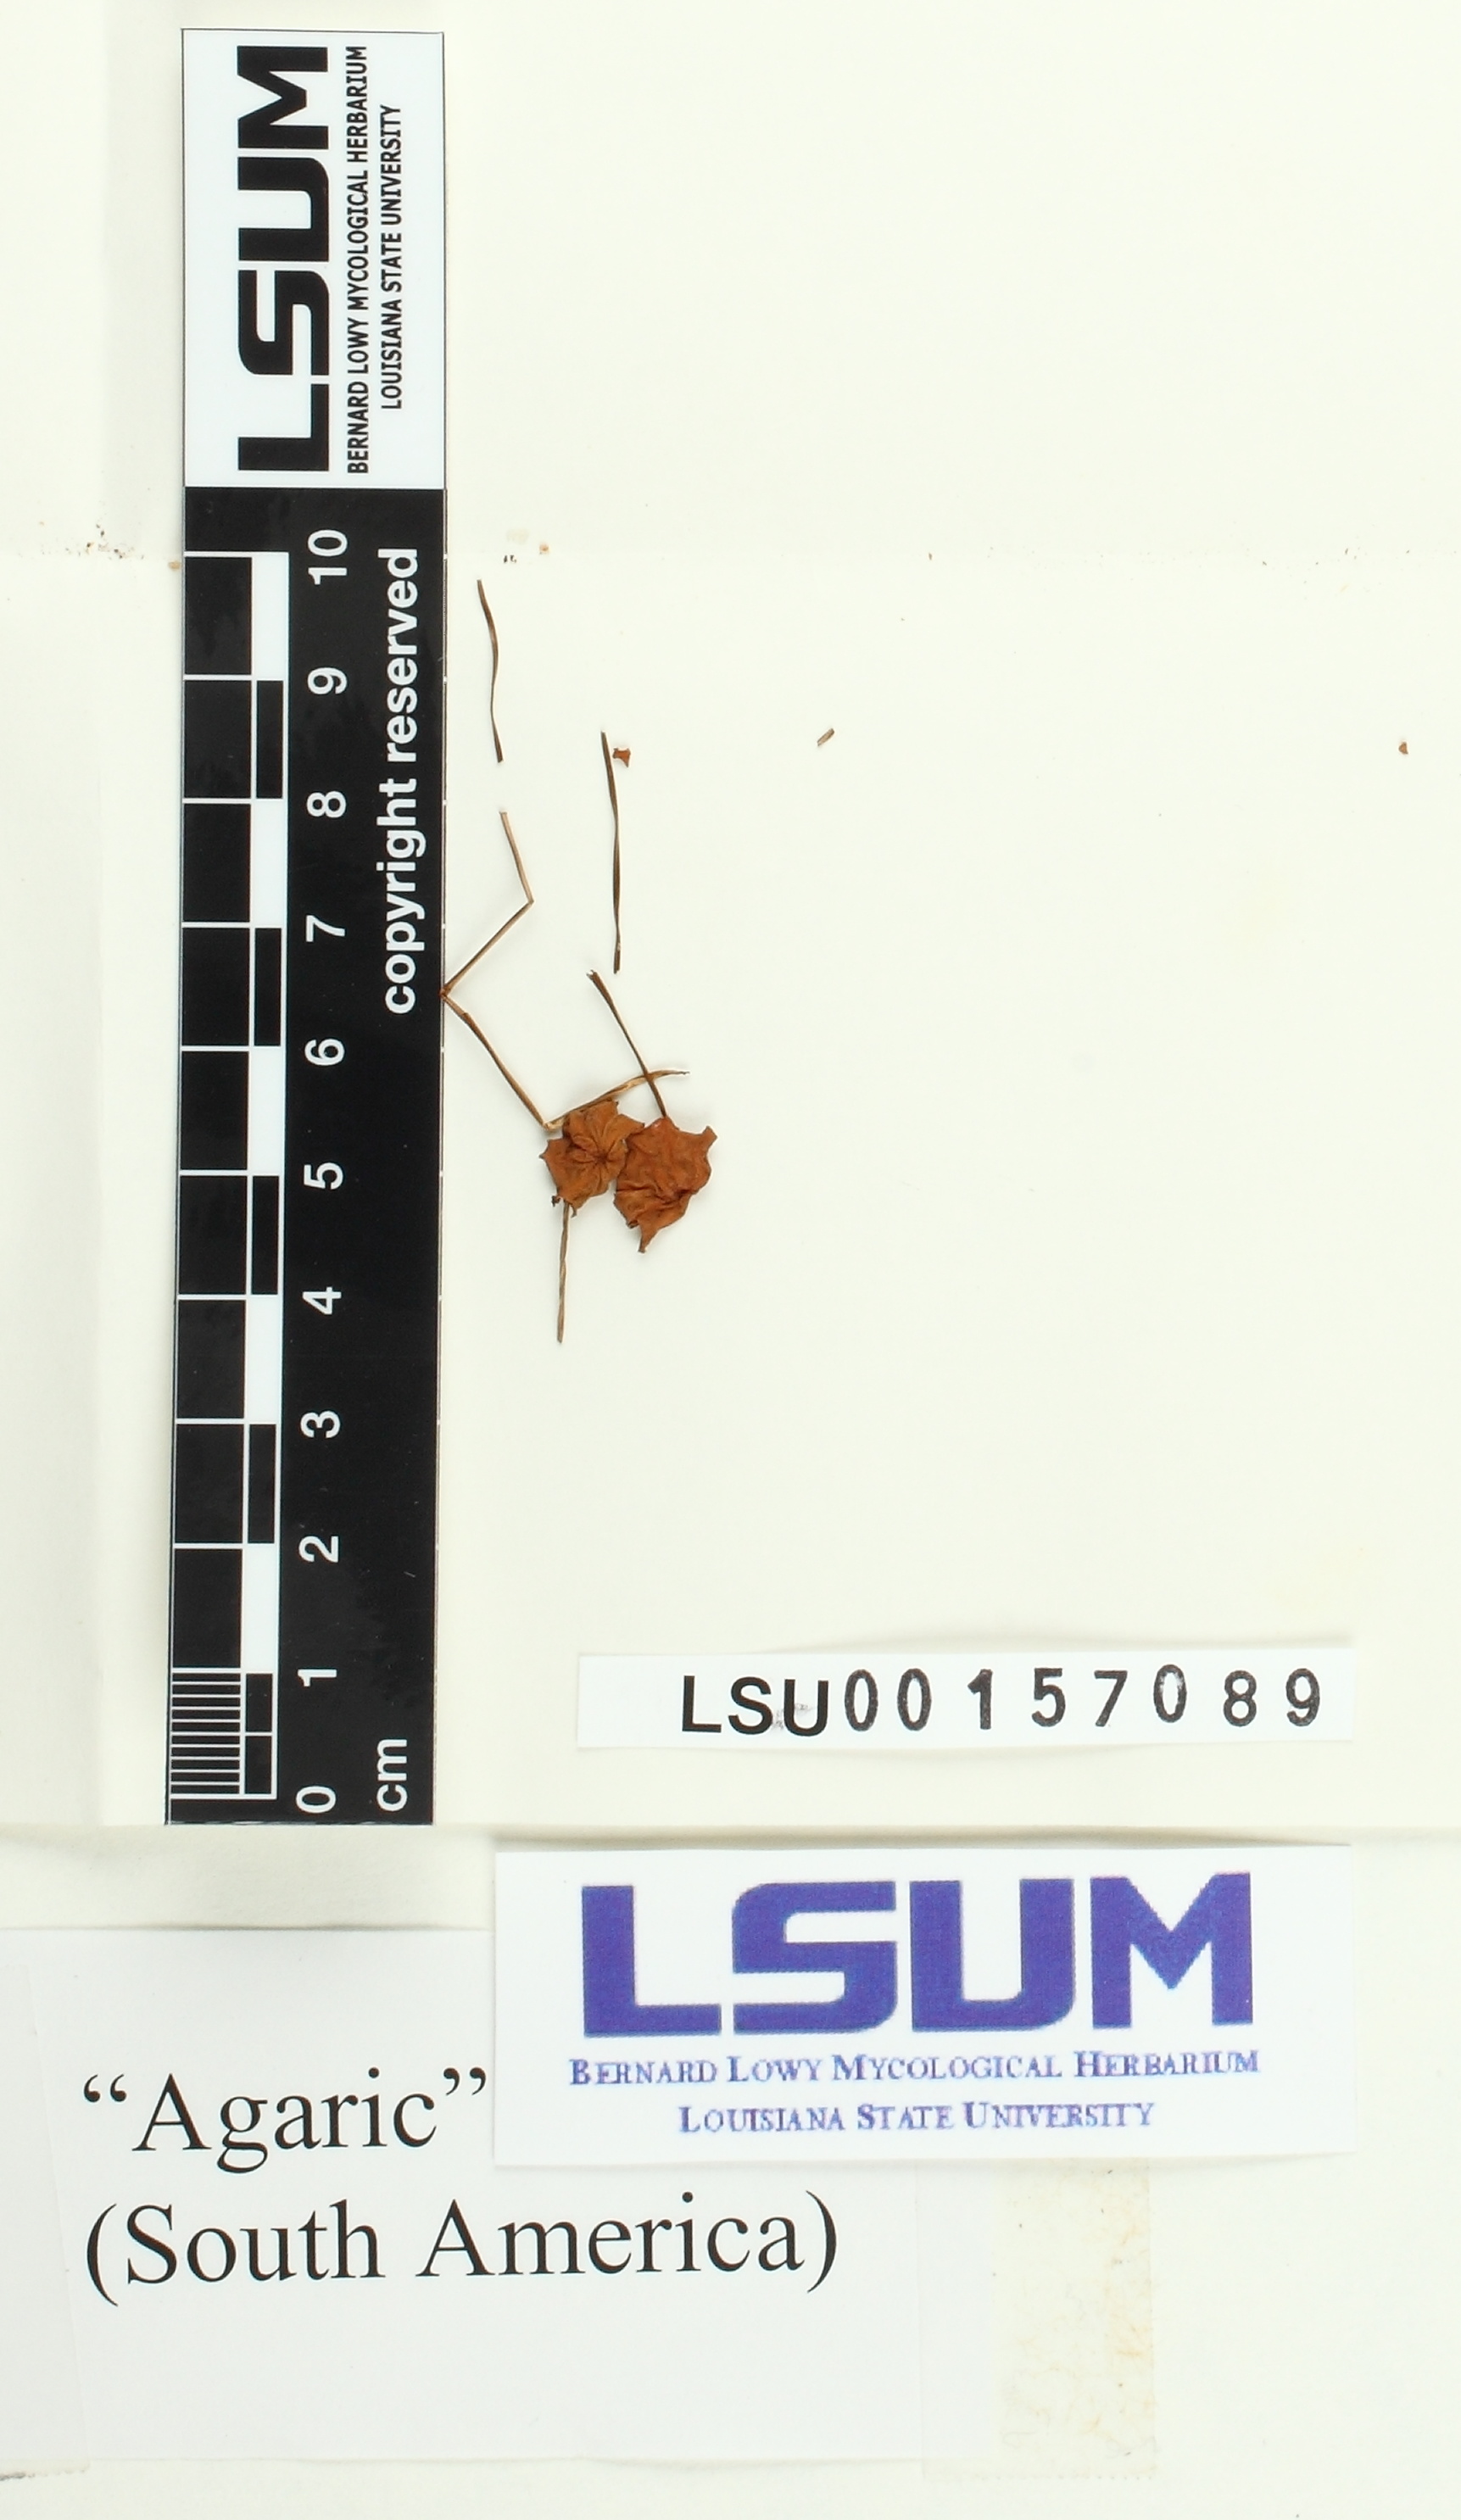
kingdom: Fungi
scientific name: Fungi
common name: Fungi
